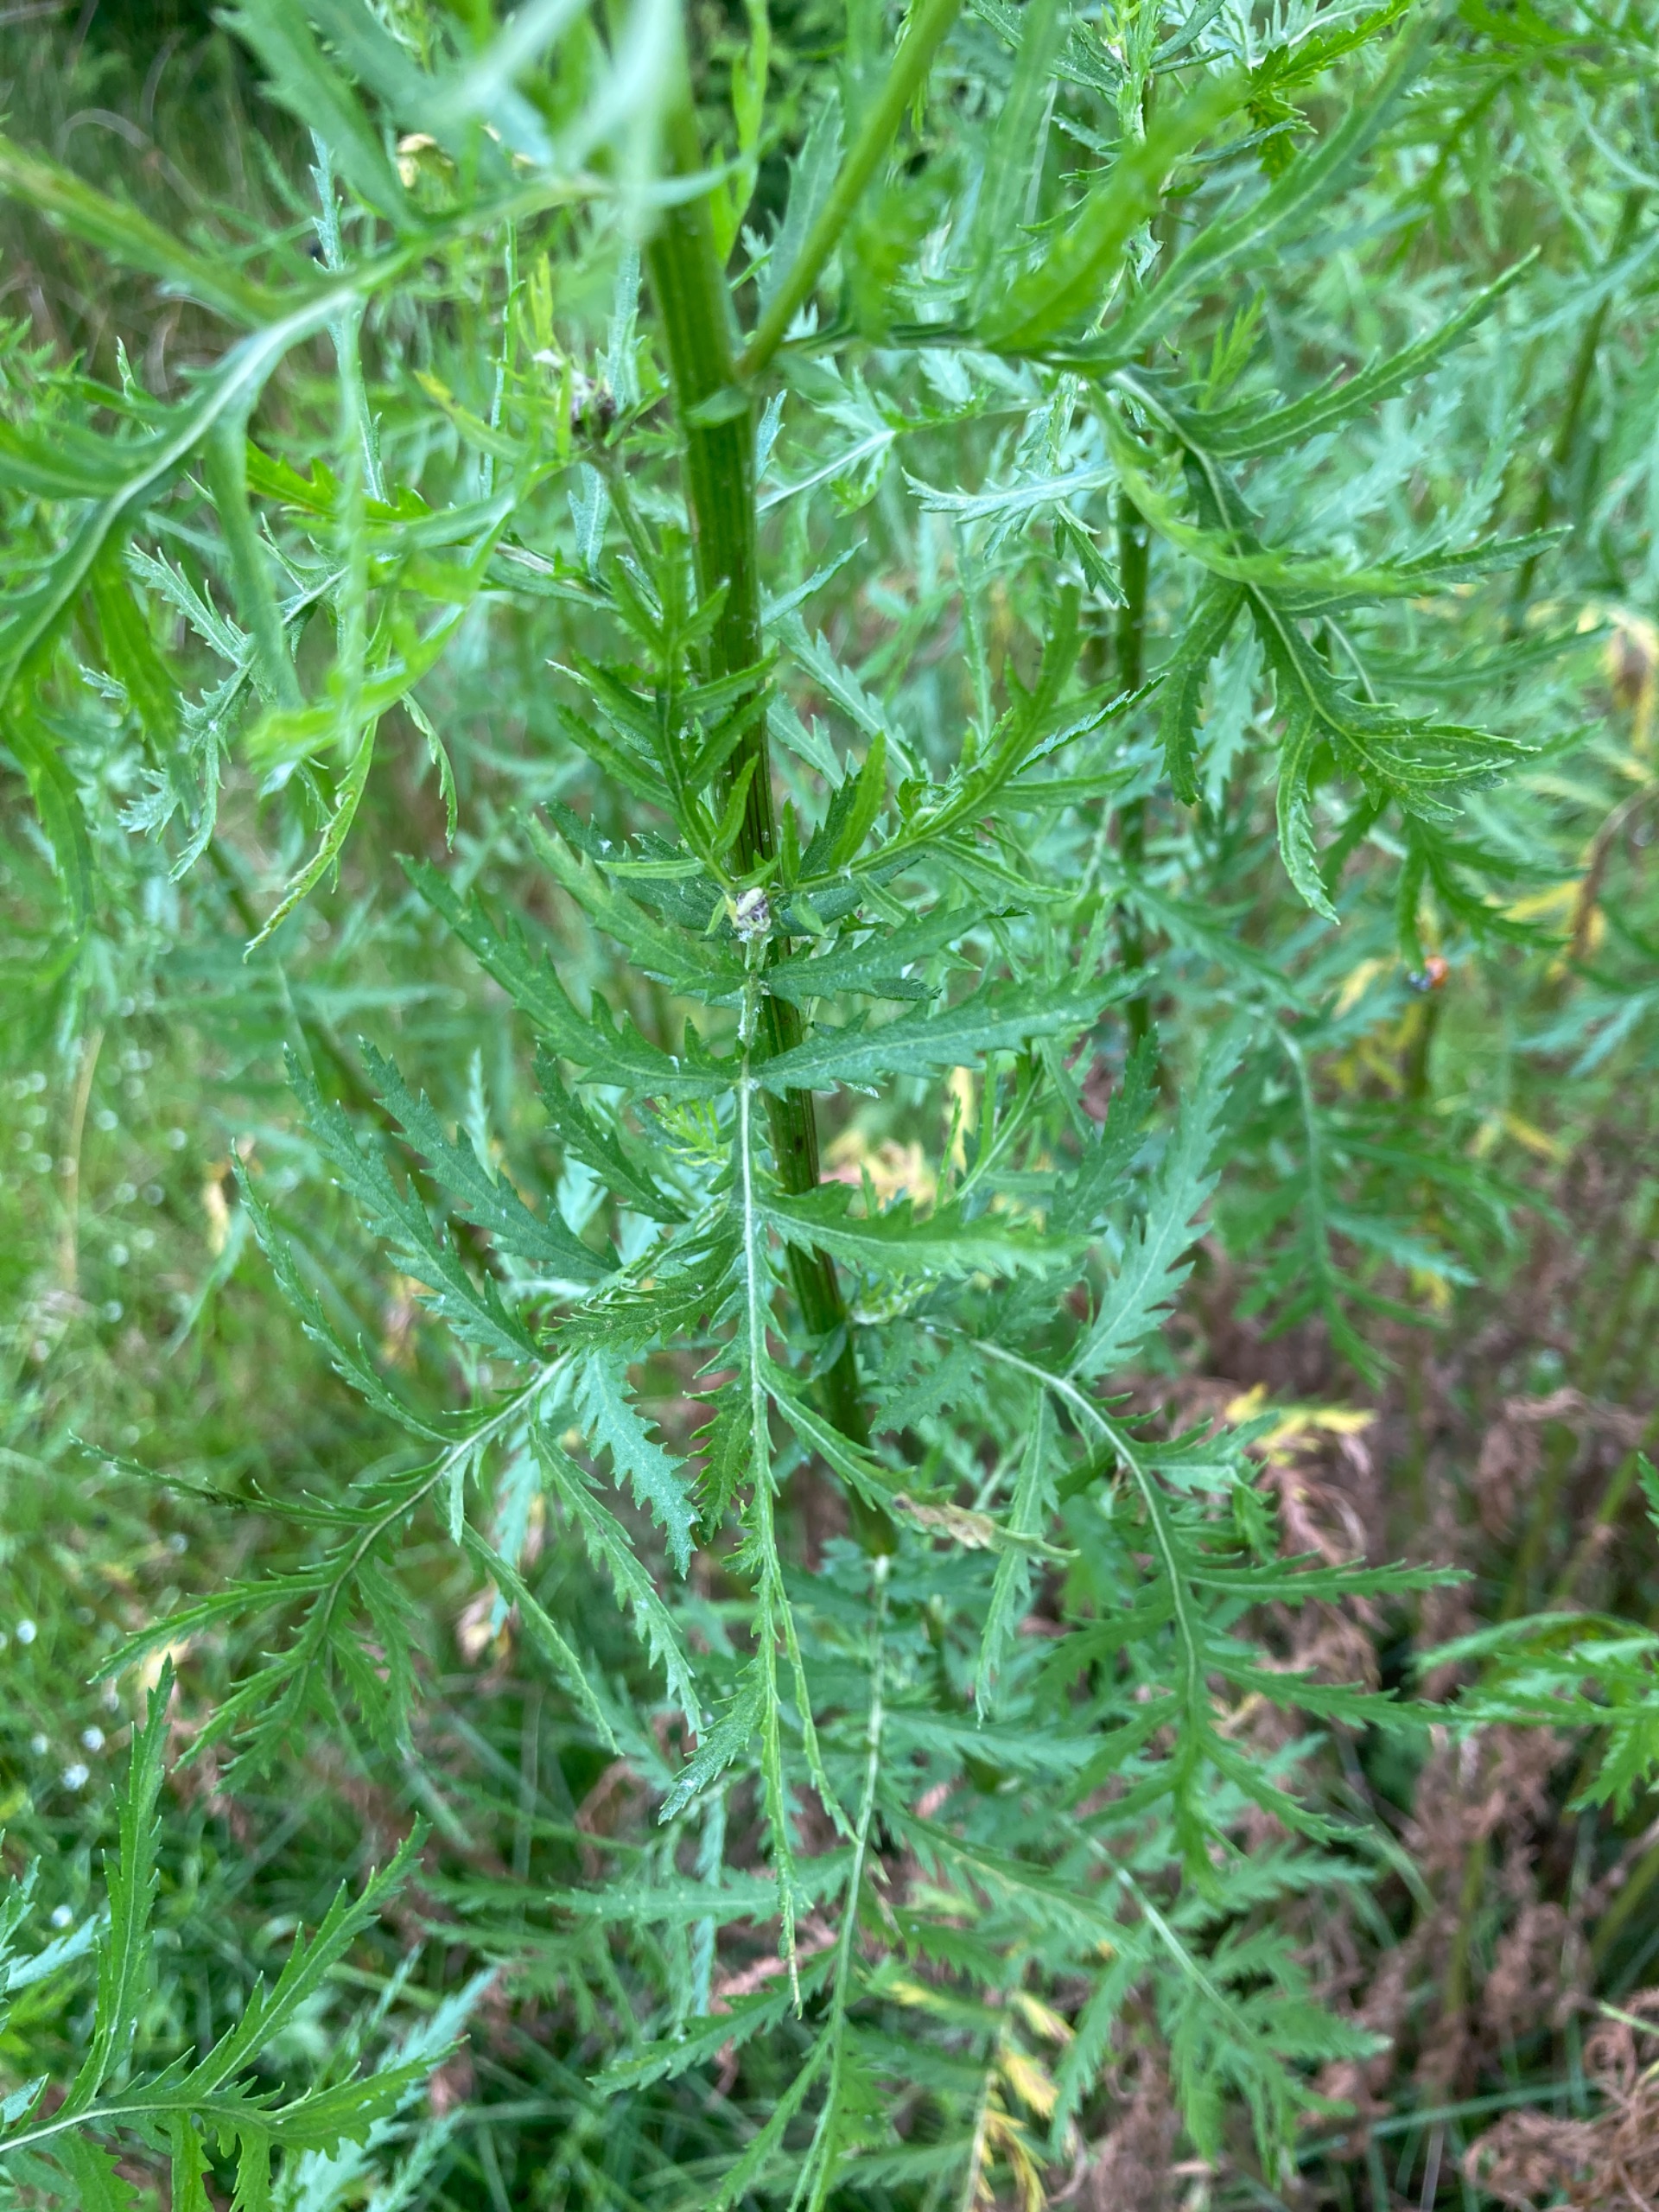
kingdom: Plantae
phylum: Tracheophyta
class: Magnoliopsida
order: Asterales
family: Asteraceae
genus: Tanacetum
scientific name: Tanacetum vulgare
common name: Rejnfan
